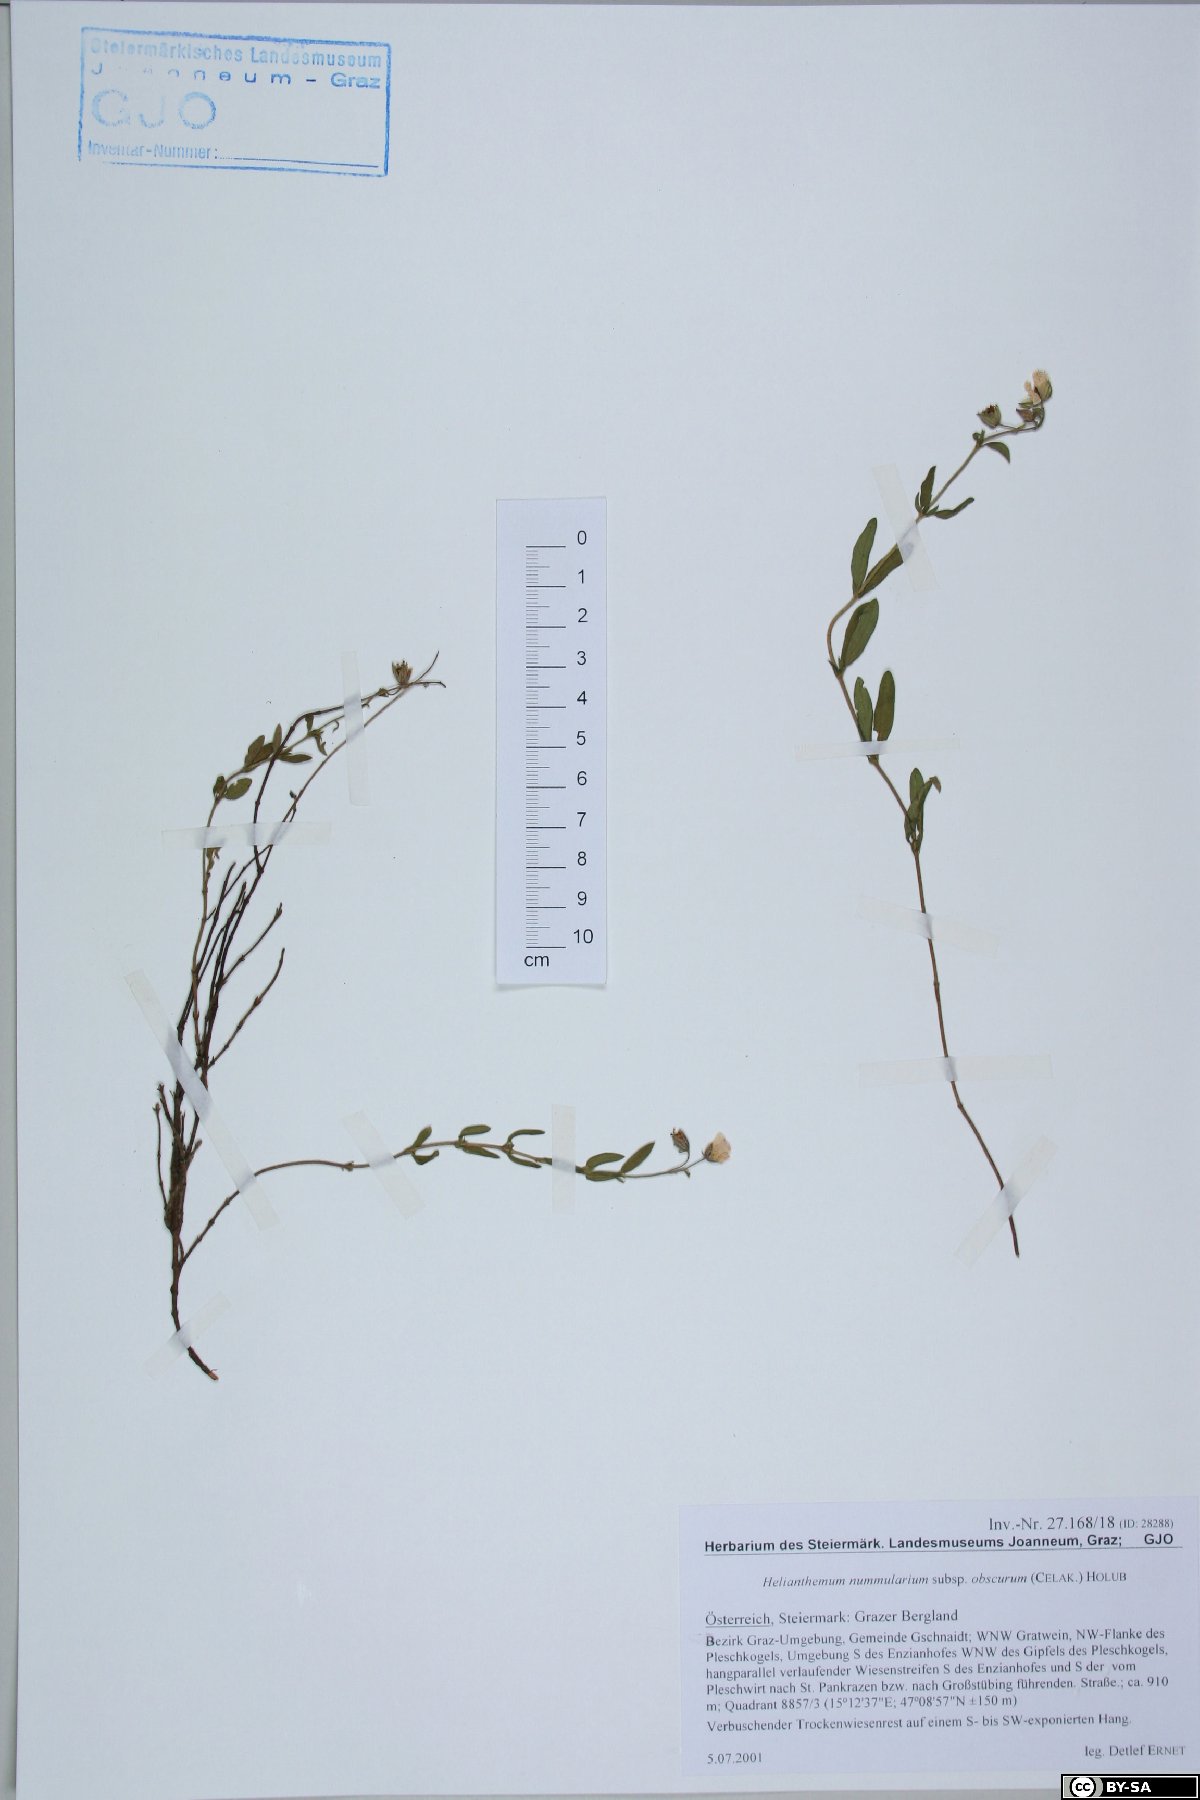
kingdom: Plantae
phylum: Tracheophyta
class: Magnoliopsida
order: Malvales
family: Cistaceae
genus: Helianthemum
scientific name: Helianthemum nummularium
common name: Common rock-rose
